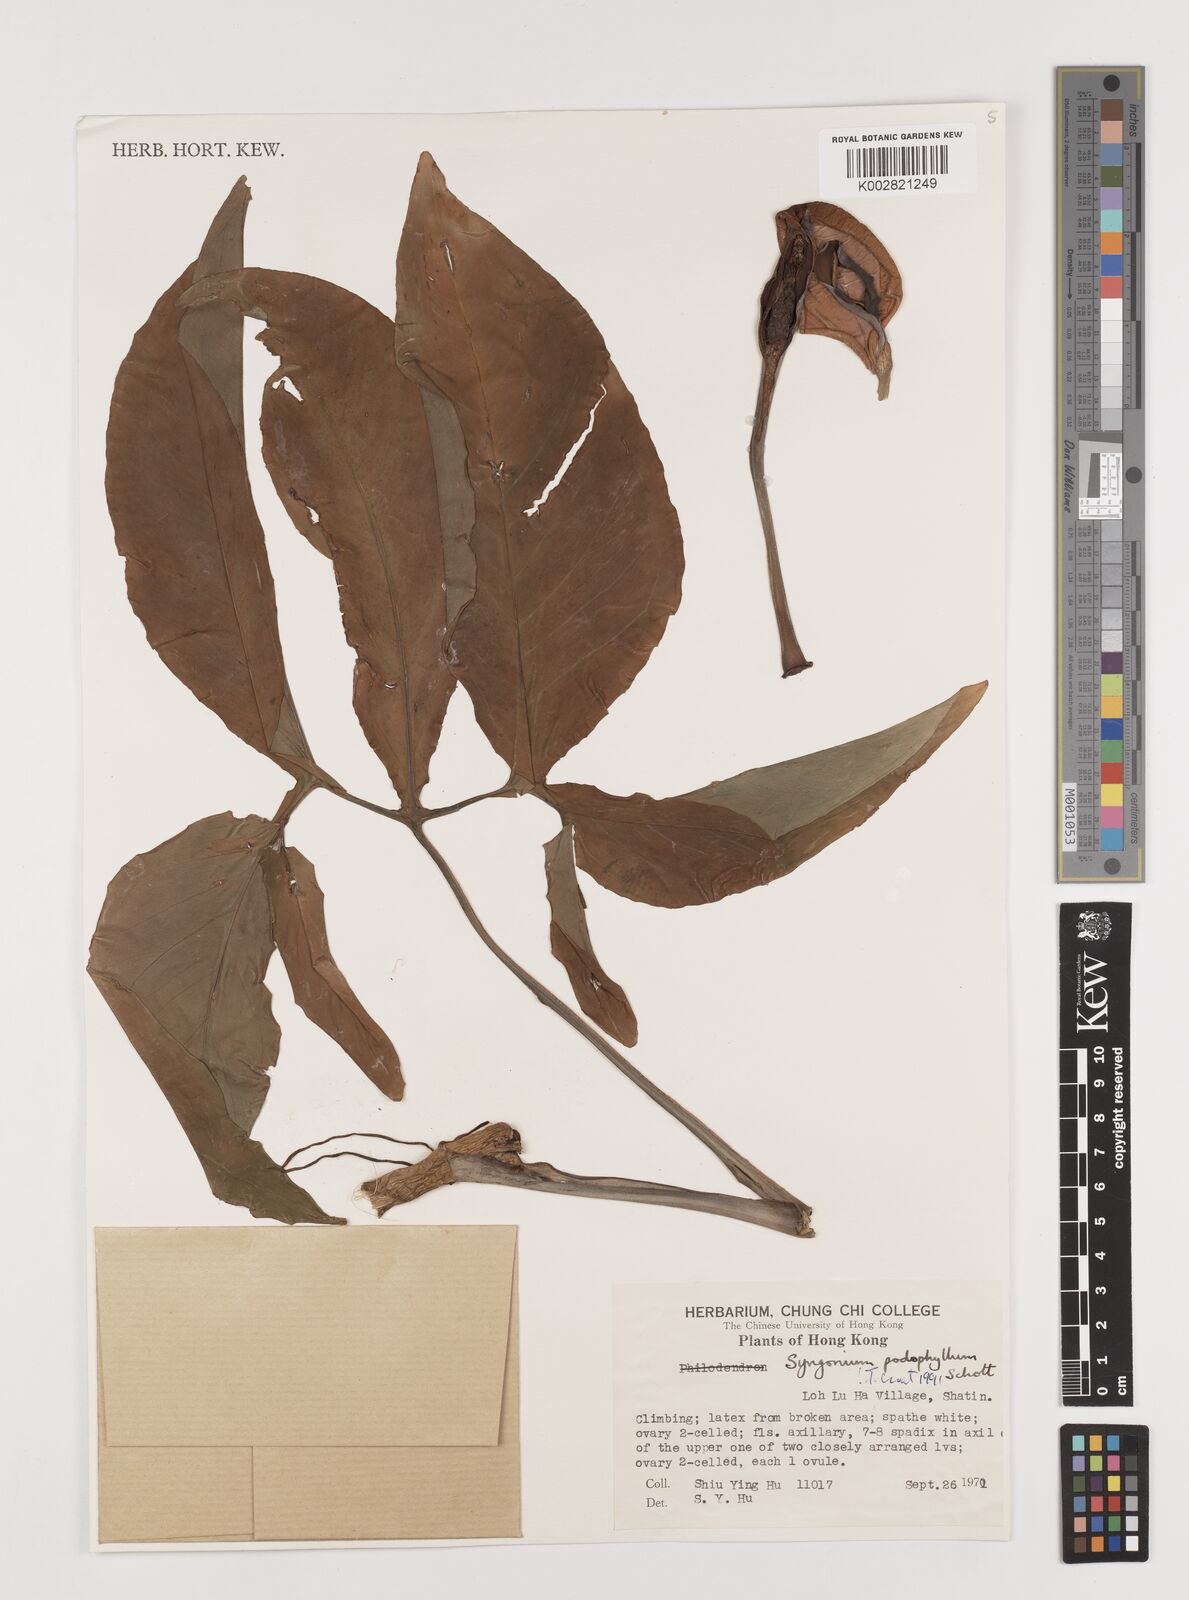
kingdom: Plantae
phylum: Tracheophyta
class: Liliopsida
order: Alismatales
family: Araceae
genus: Syngonium
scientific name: Syngonium podophyllum
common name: American evergreen
